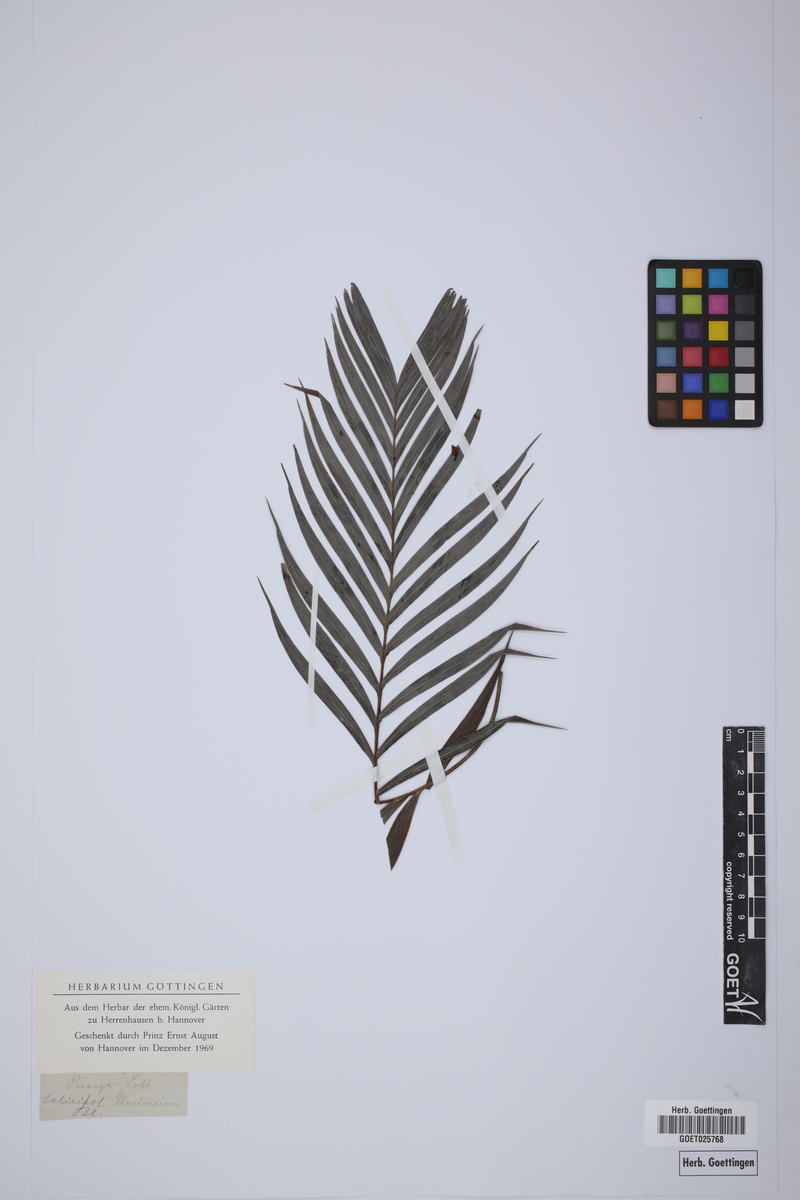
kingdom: Plantae
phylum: Tracheophyta
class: Liliopsida
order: Arecales
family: Arecaceae
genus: Pinanga
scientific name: Pinanga salicifolia
